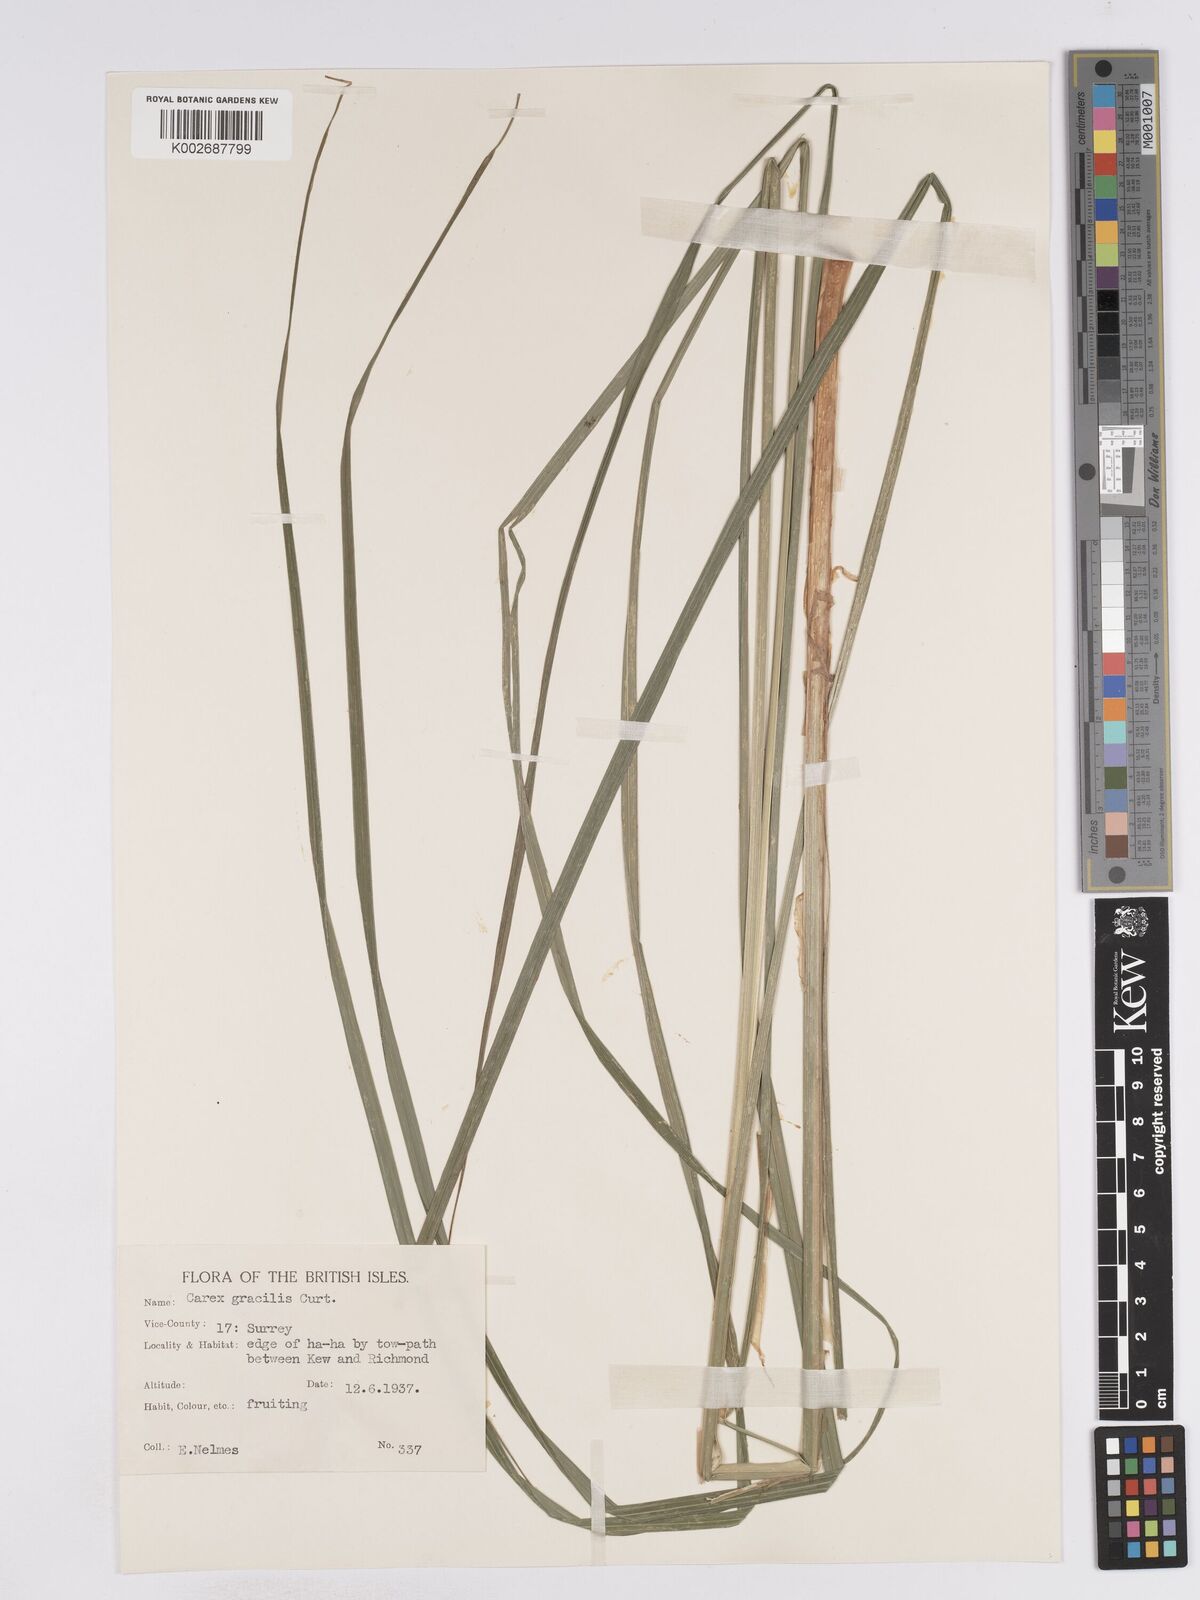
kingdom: Plantae
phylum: Tracheophyta
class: Liliopsida
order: Poales
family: Cyperaceae
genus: Carex
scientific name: Carex acuta
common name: Slender tufted-sedge
